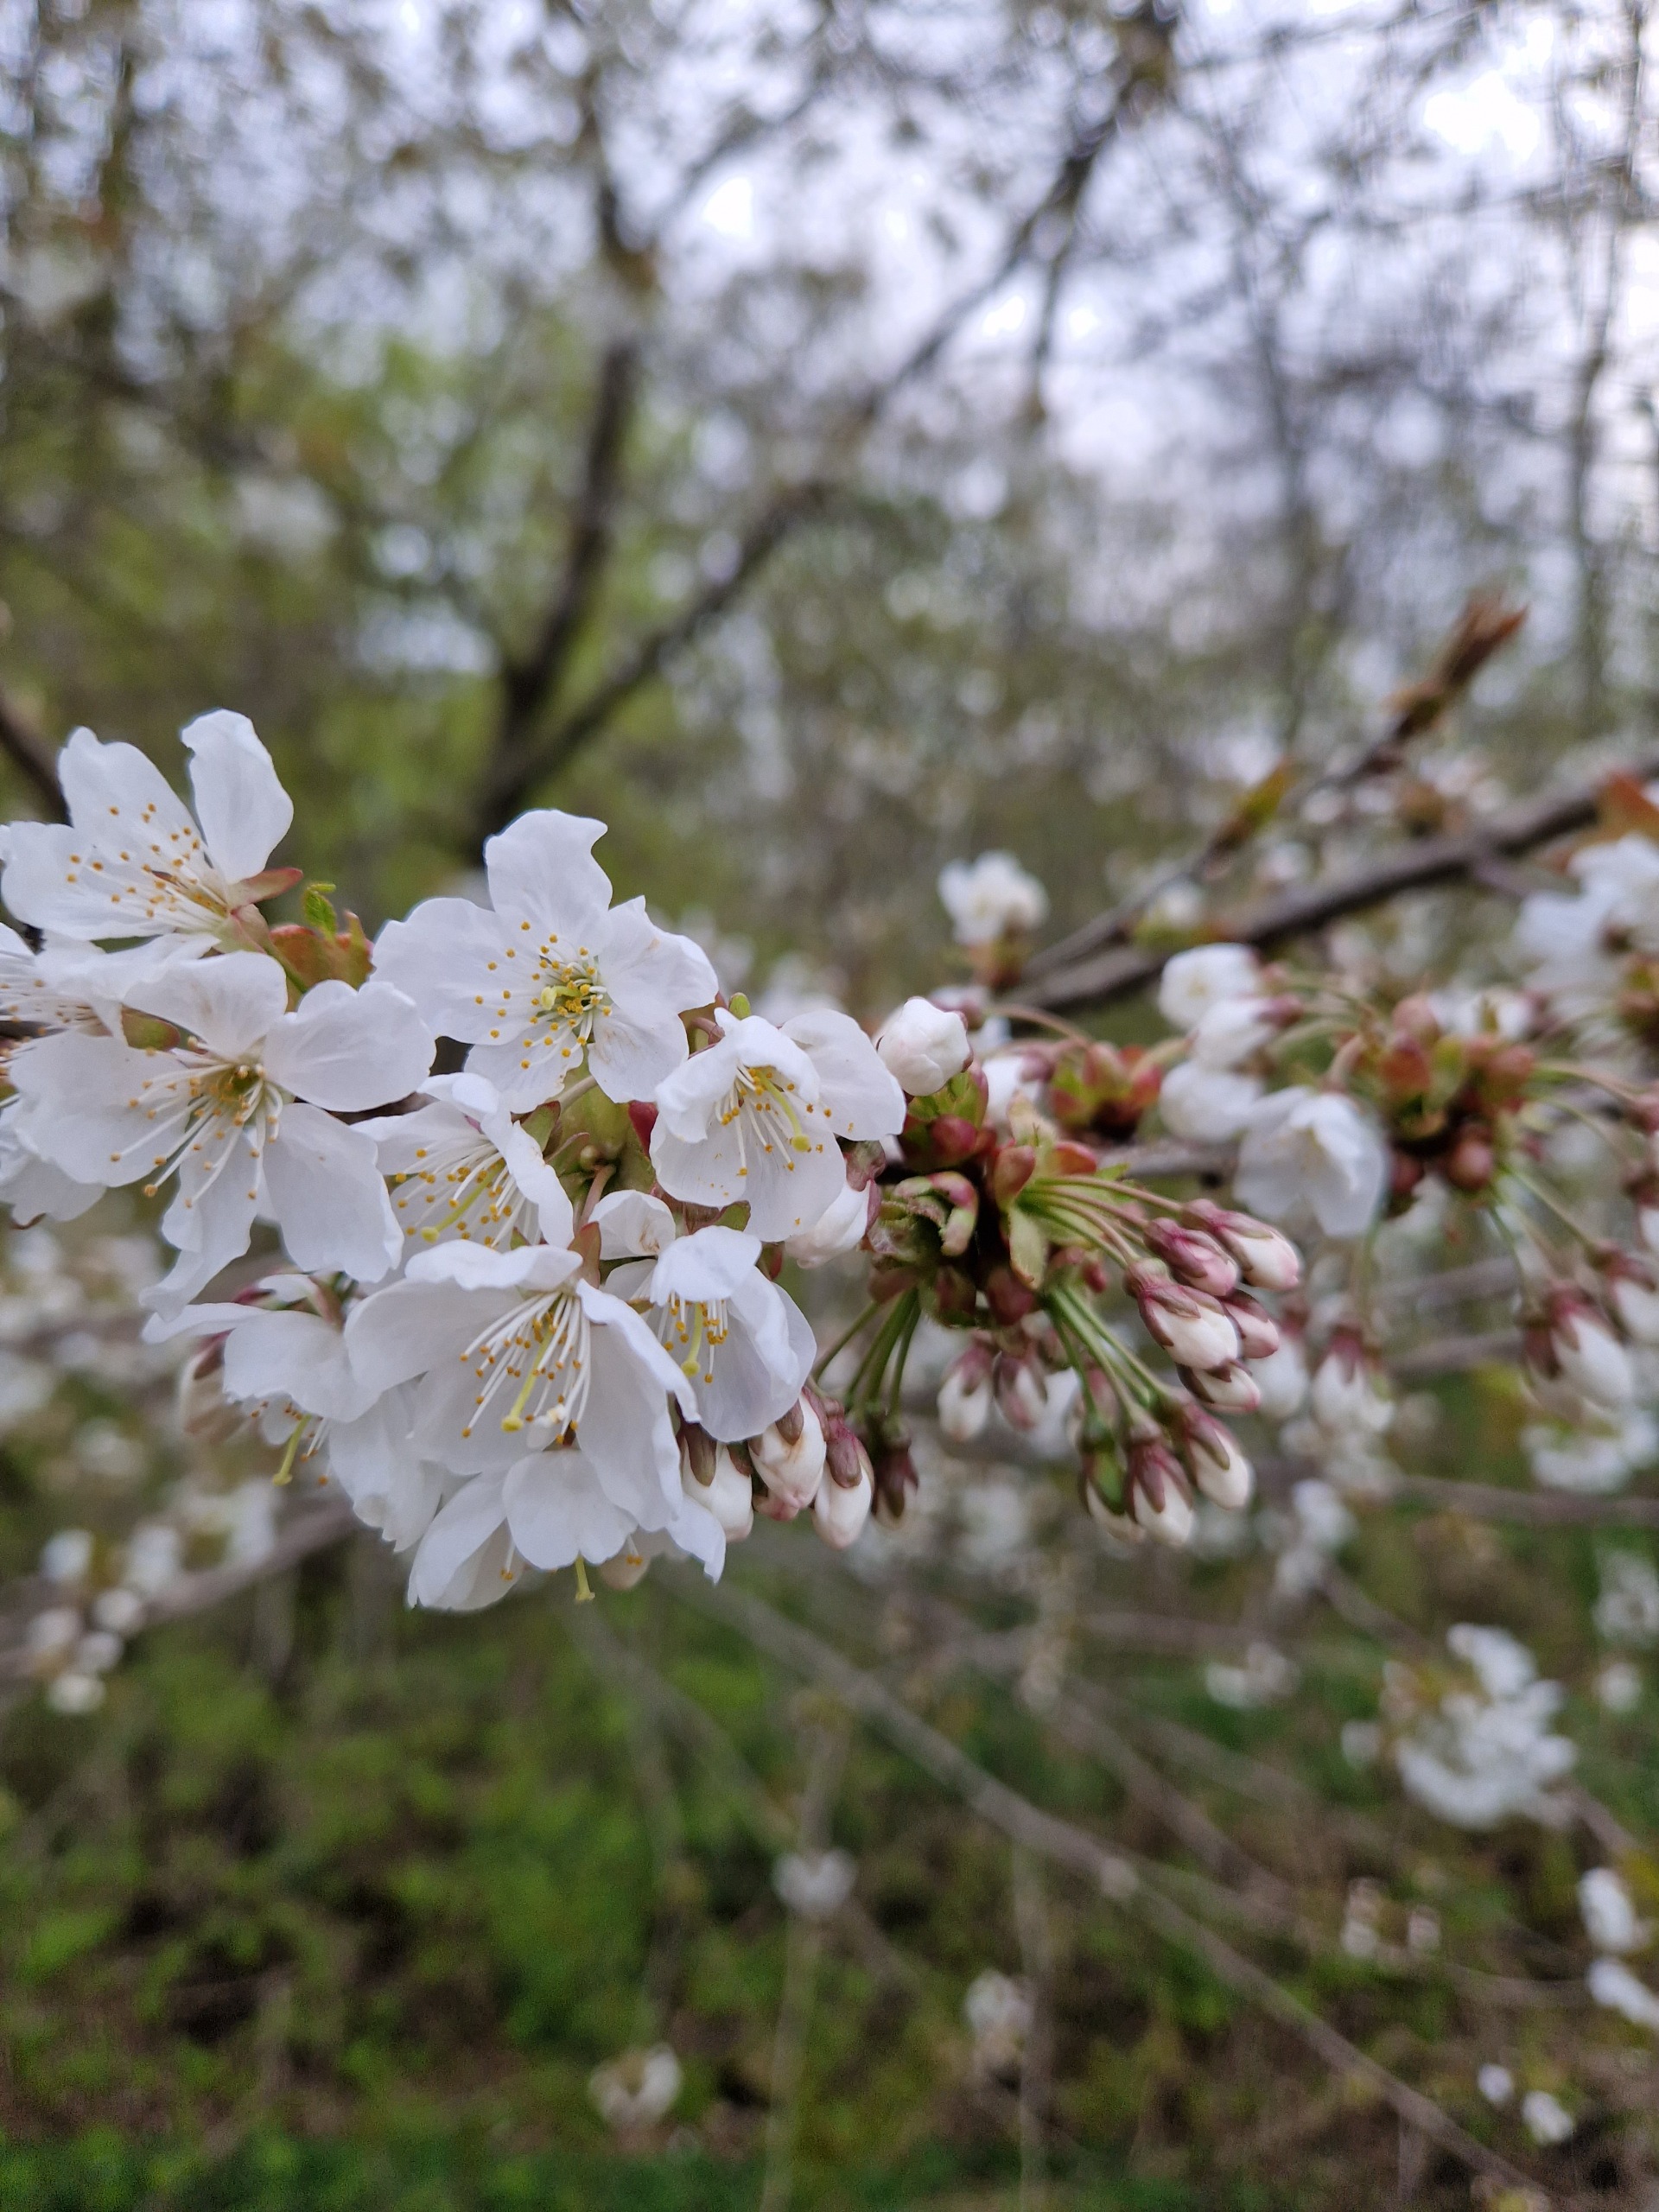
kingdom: Plantae
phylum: Tracheophyta
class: Magnoliopsida
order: Rosales
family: Rosaceae
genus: Prunus
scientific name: Prunus avium
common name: Fugle-kirsebær
